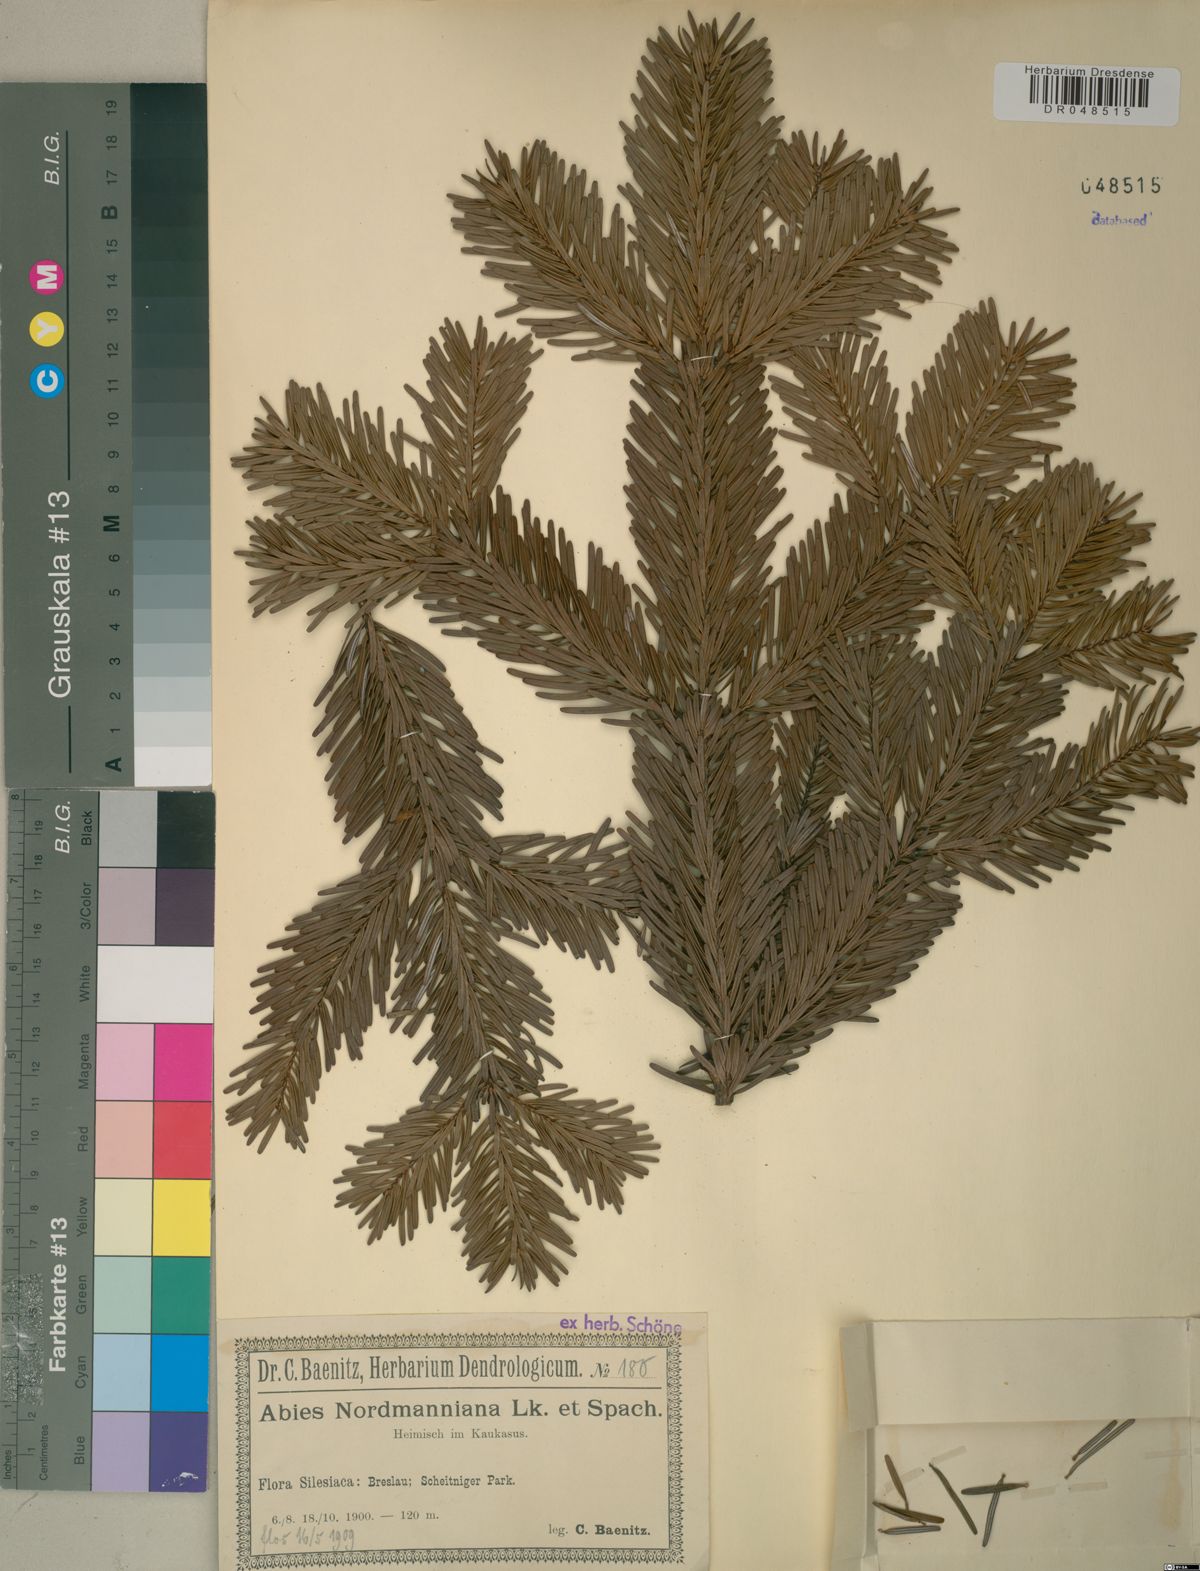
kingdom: Plantae
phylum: Tracheophyta
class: Pinopsida
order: Pinales
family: Pinaceae
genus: Abies
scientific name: Abies nordmanniana
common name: Caucasian fir
